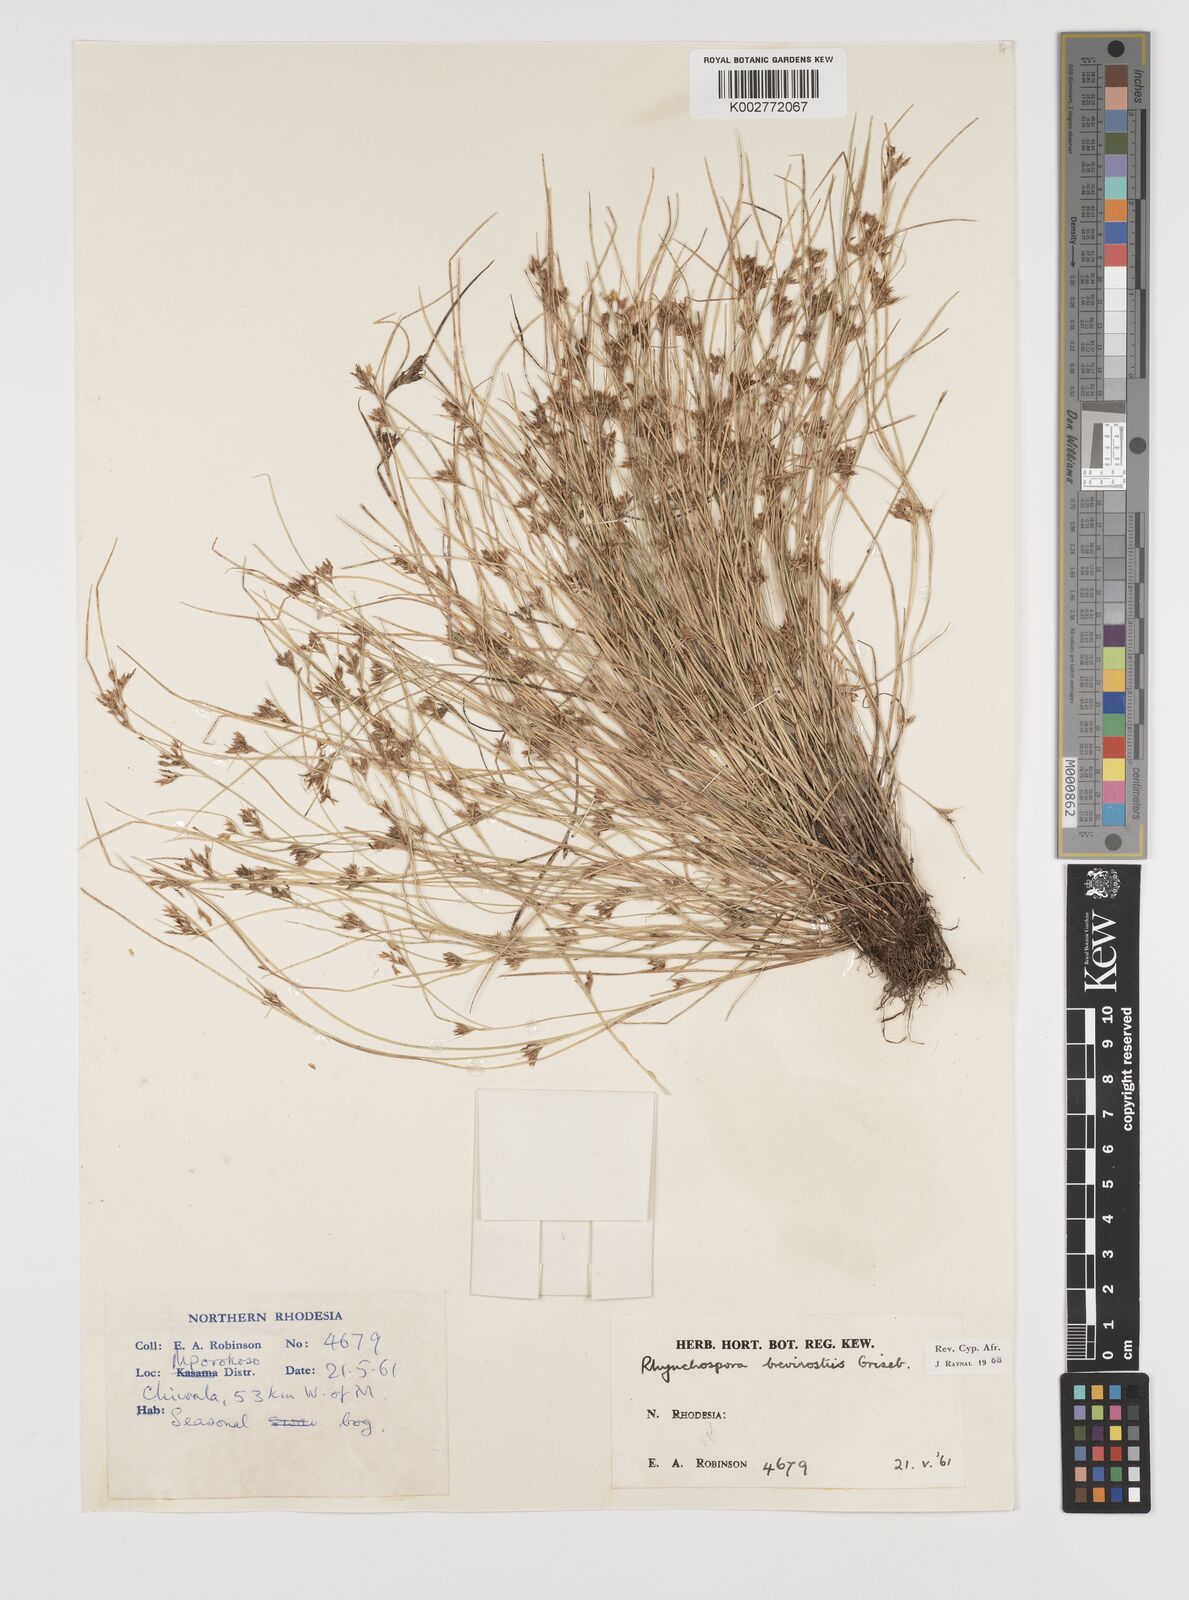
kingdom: Plantae
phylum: Tracheophyta
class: Liliopsida
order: Poales
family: Cyperaceae
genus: Rhynchospora
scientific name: Rhynchospora brevirostris
